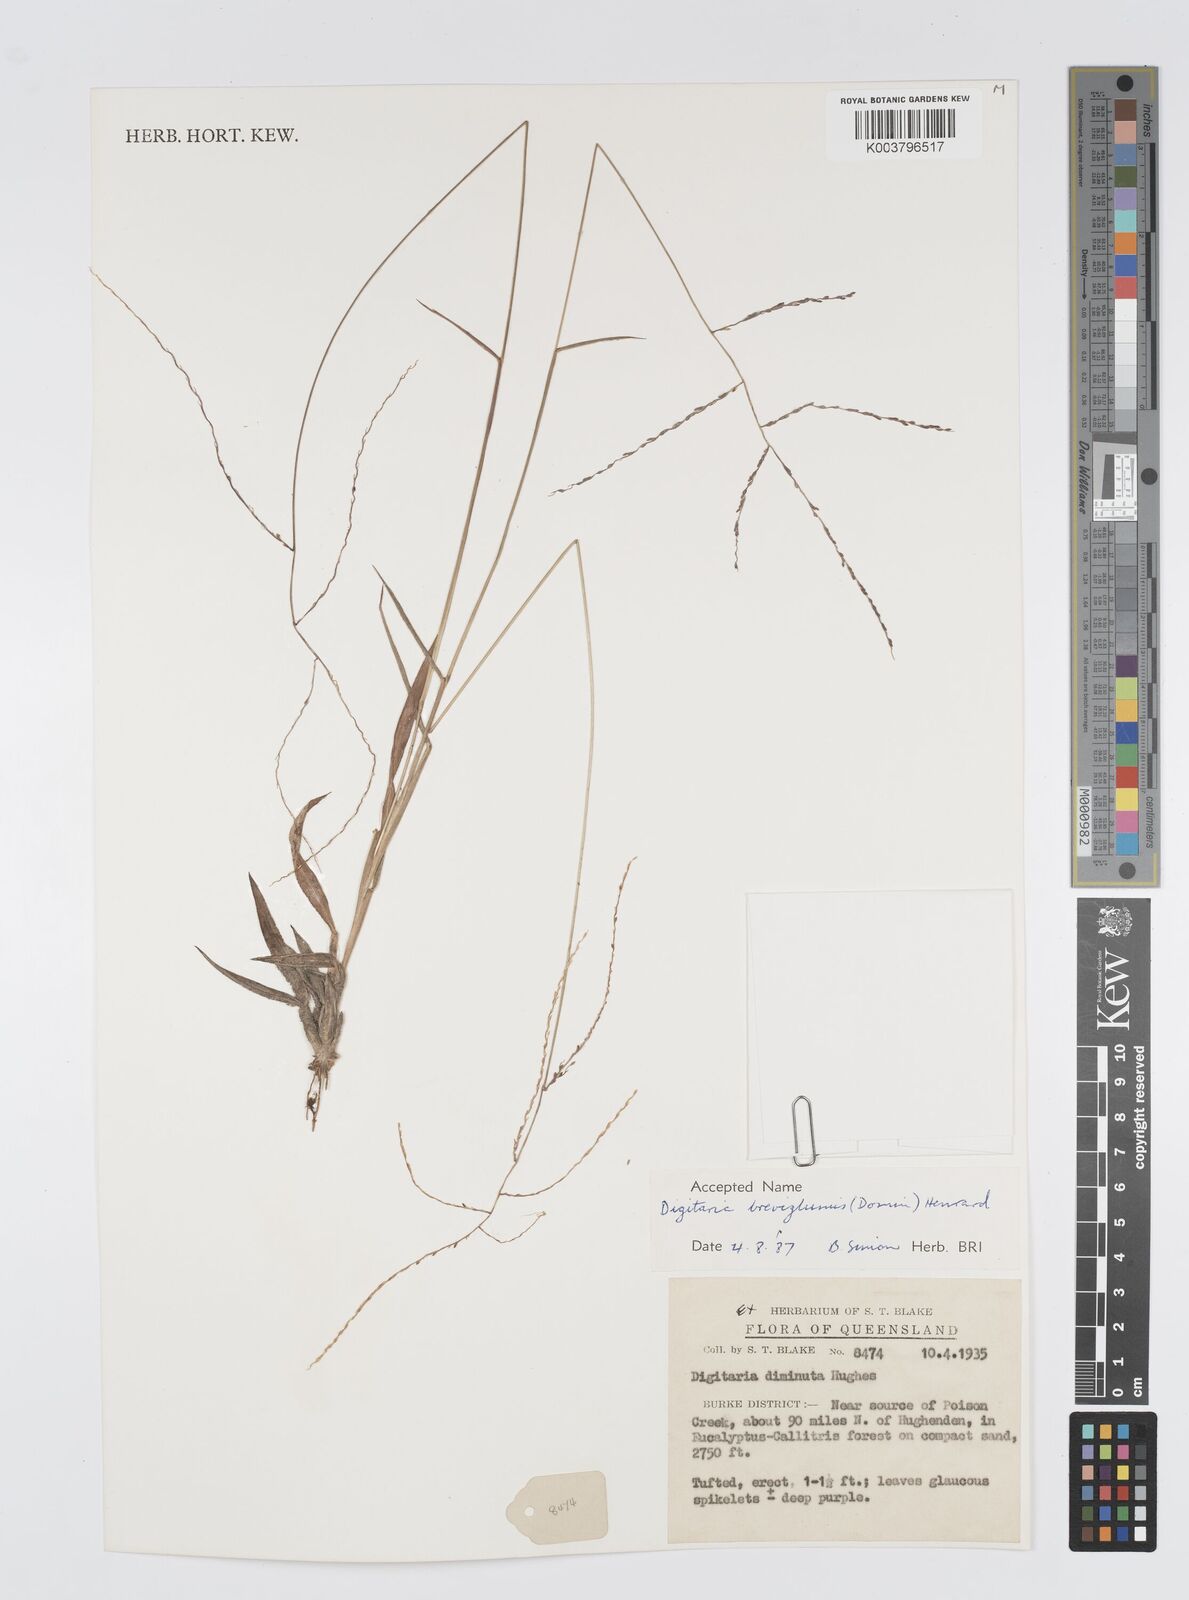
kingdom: Plantae
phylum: Tracheophyta
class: Liliopsida
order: Poales
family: Poaceae
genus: Digitaria
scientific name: Digitaria breviglumis
